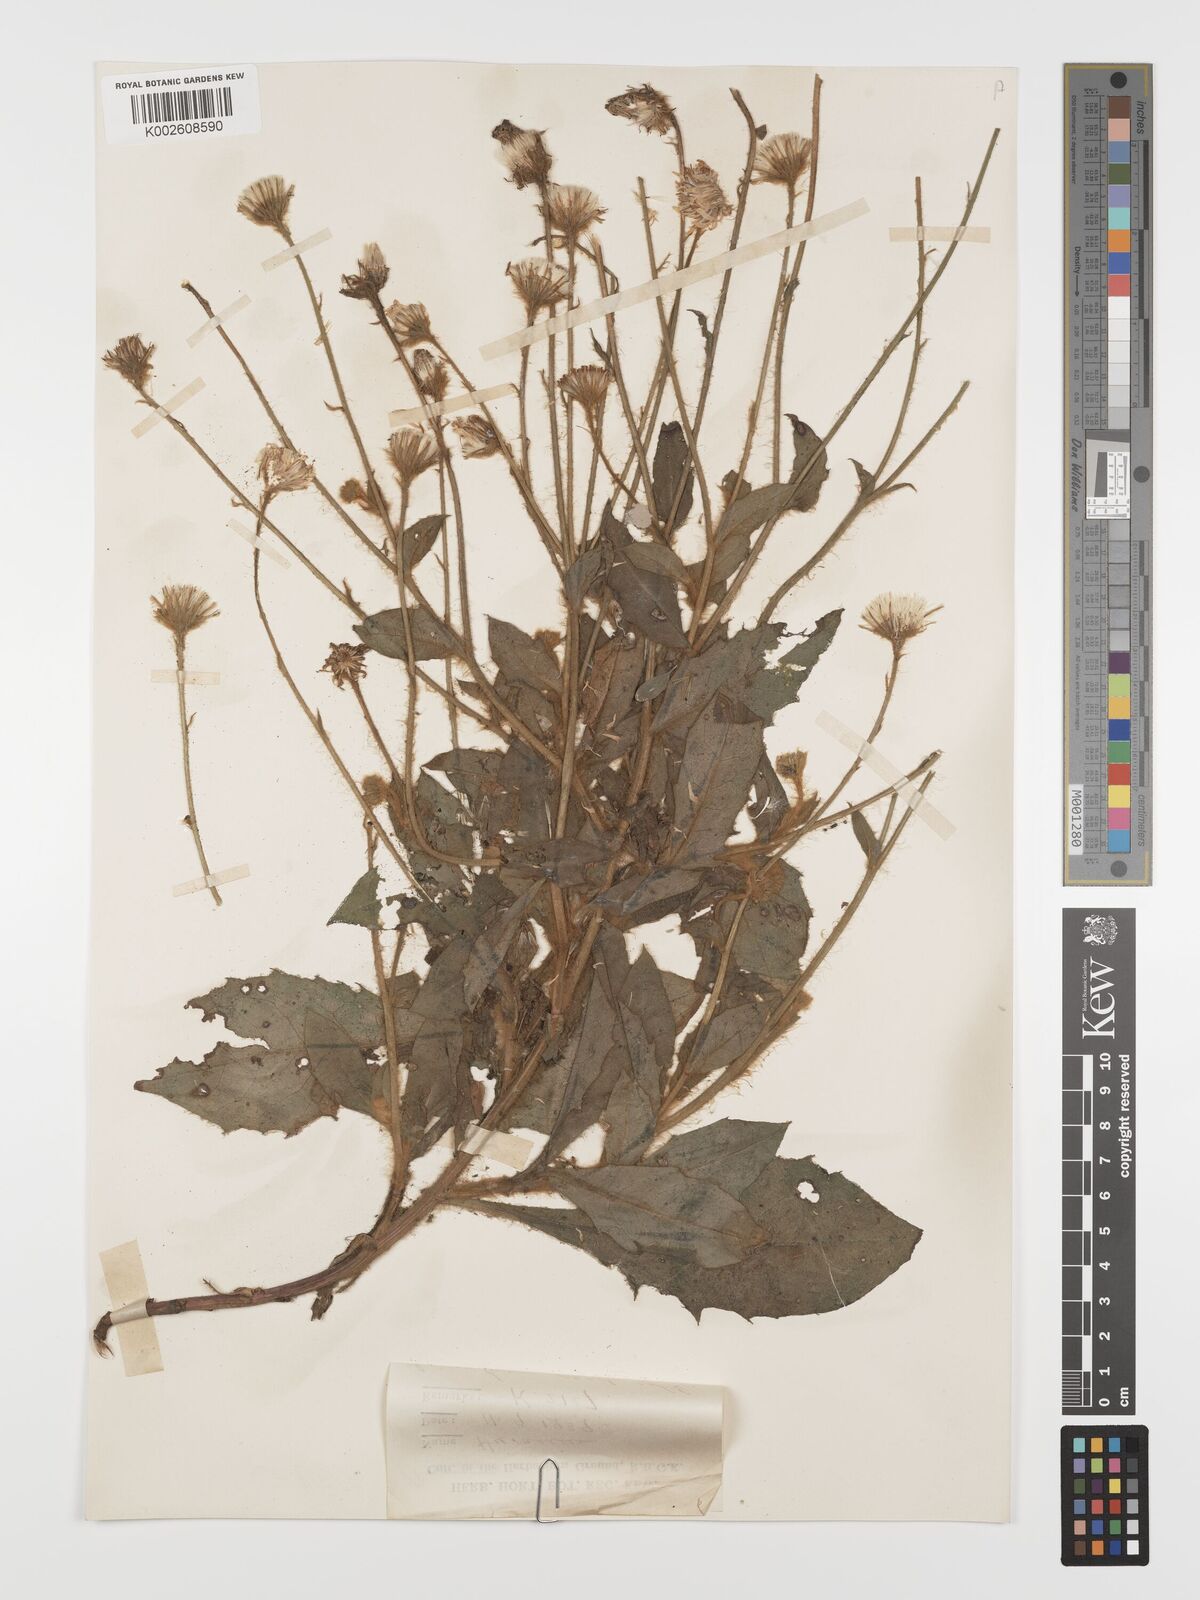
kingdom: Plantae
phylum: Tracheophyta
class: Magnoliopsida
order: Asterales
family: Asteraceae
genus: Hieracium
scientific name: Hieracium pannosum
